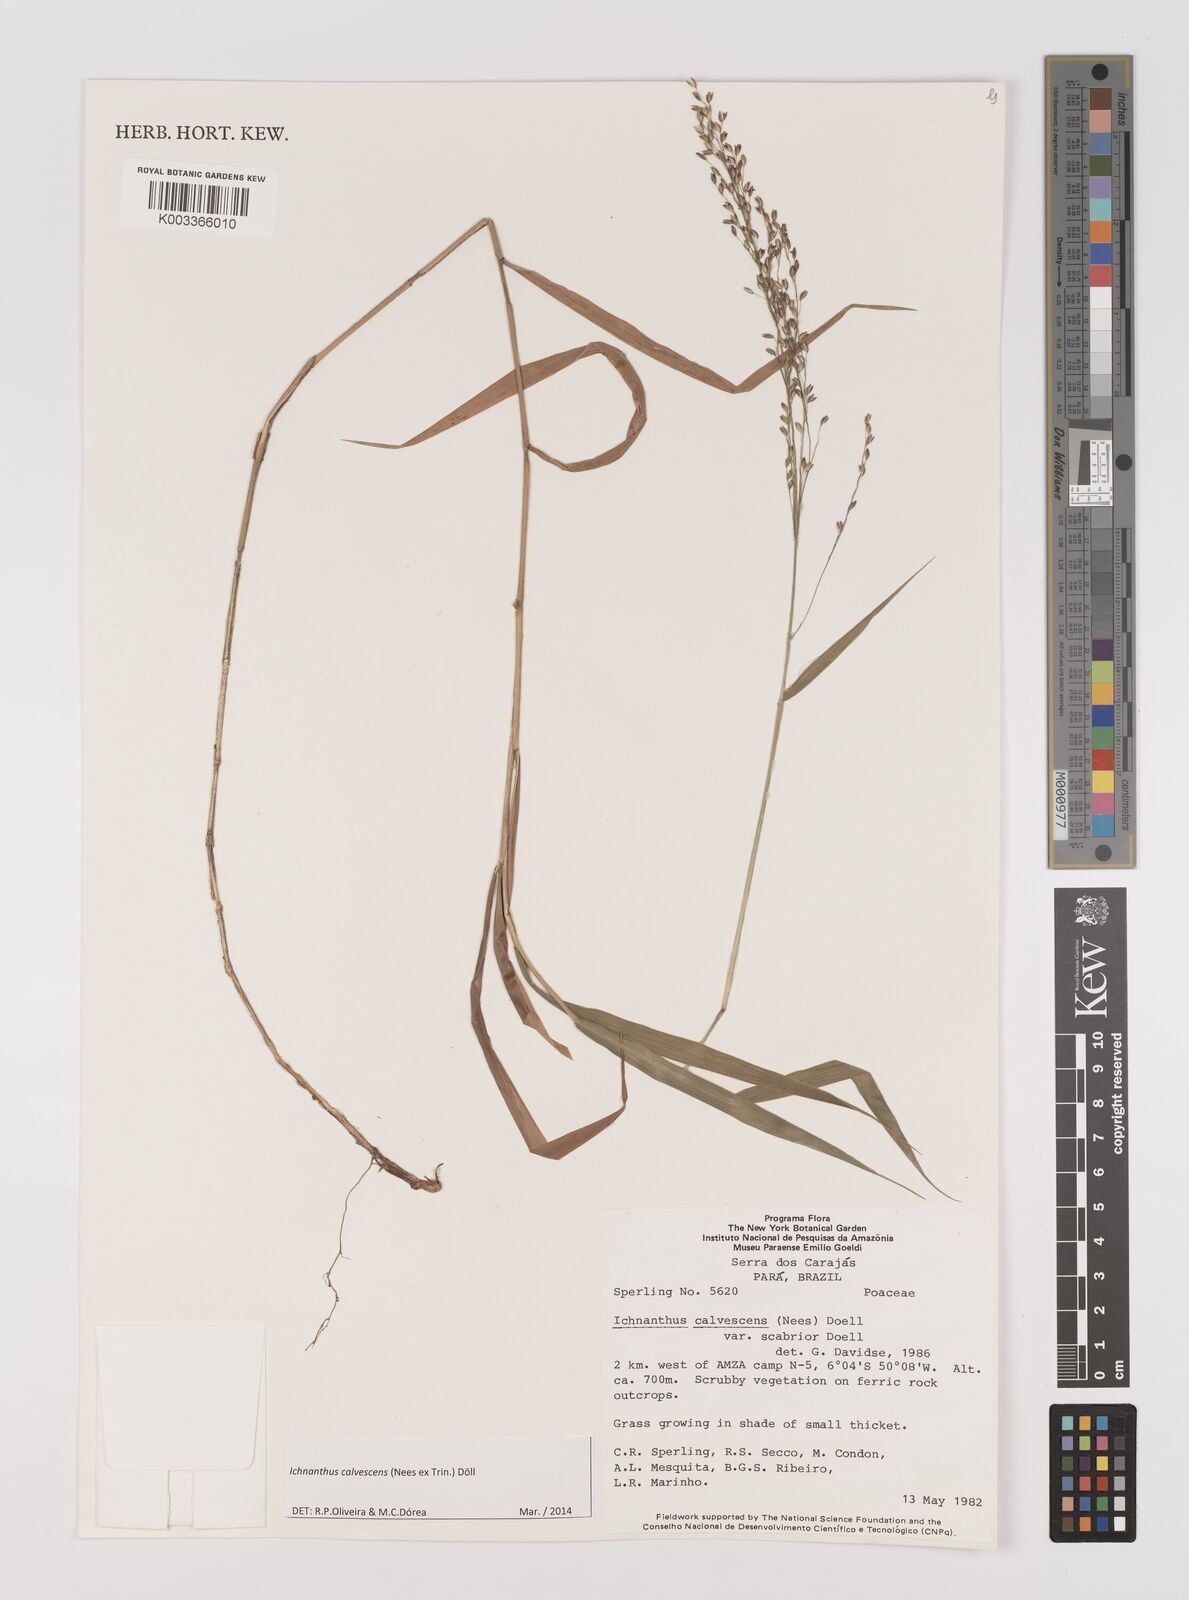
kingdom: Plantae
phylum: Tracheophyta
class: Liliopsida
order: Poales
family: Poaceae
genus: Ichnanthus
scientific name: Ichnanthus calvescens
